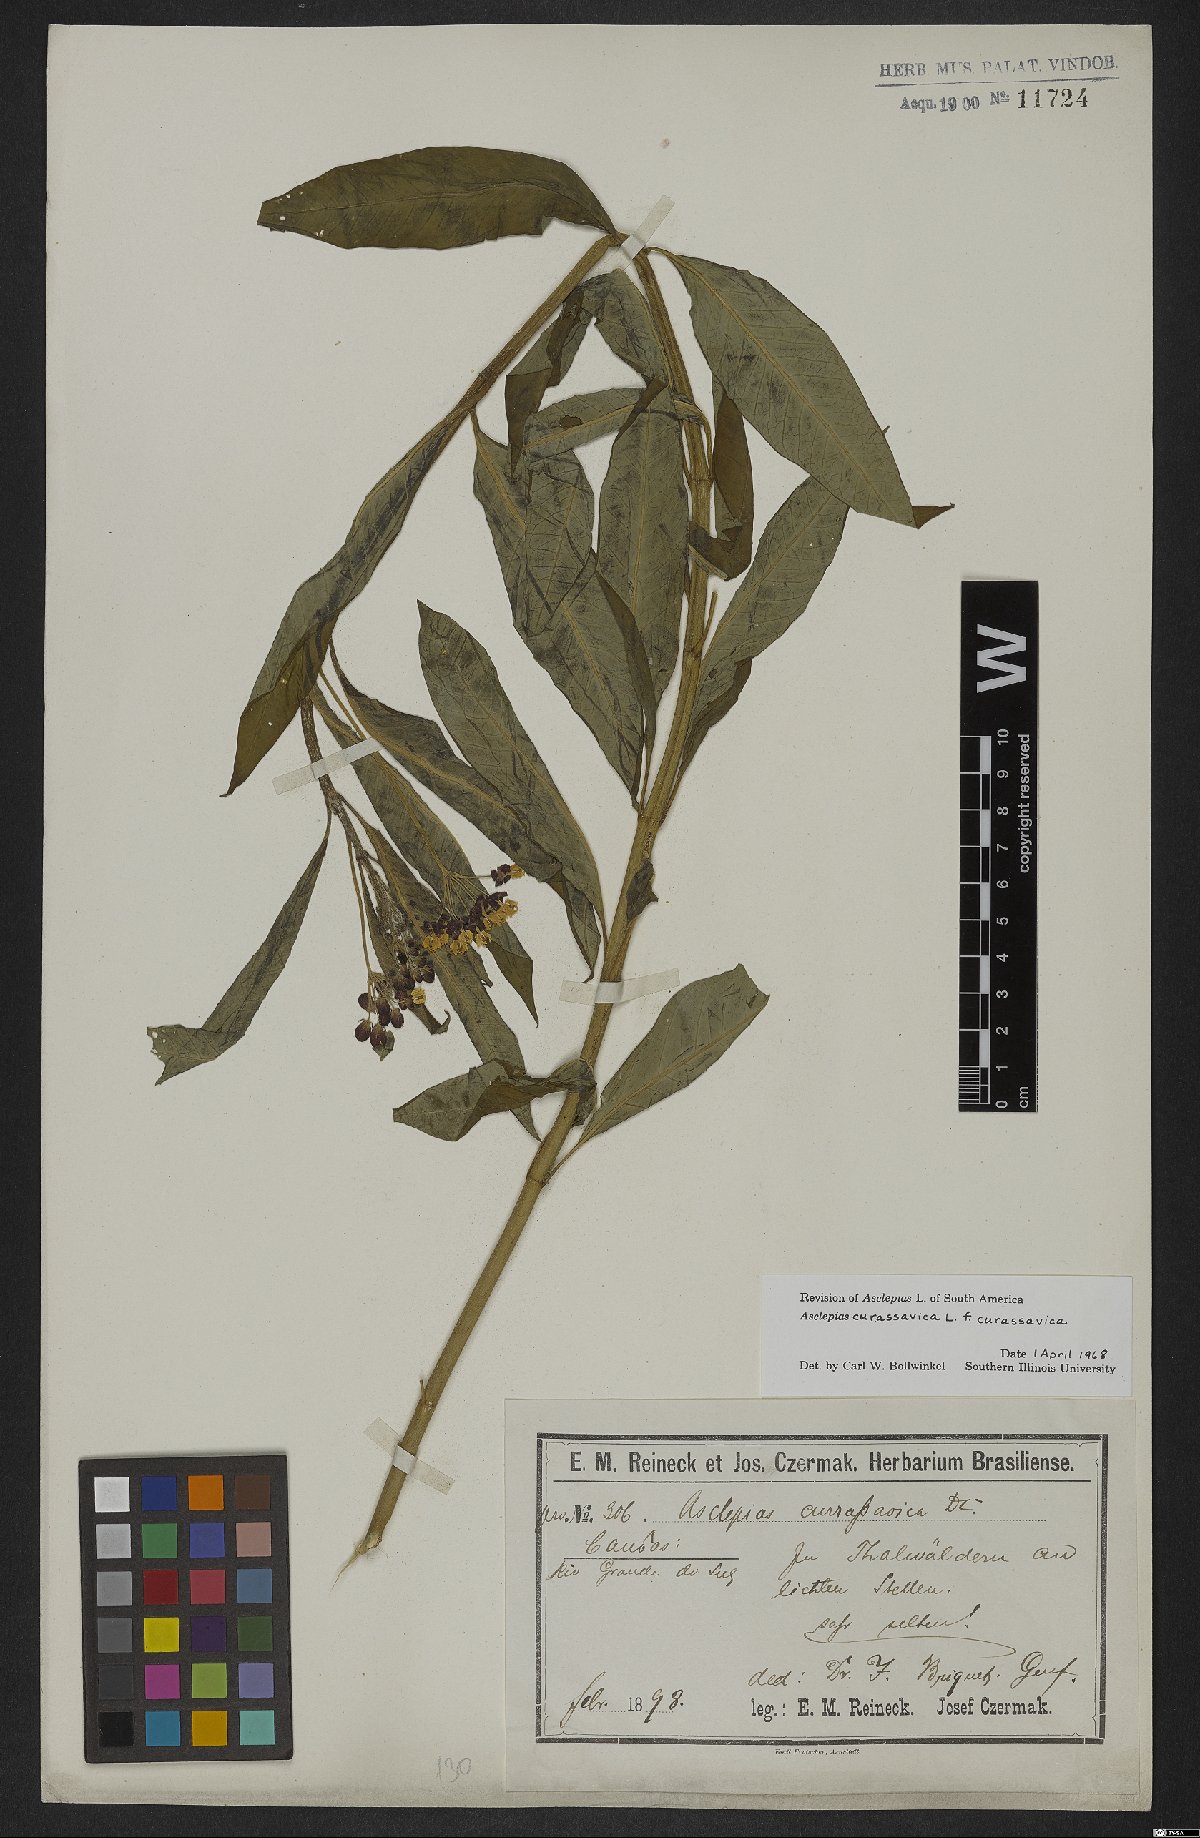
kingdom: Plantae
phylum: Tracheophyta
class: Magnoliopsida
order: Gentianales
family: Apocynaceae
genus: Asclepias
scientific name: Asclepias curassavica
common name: Bloodflower
